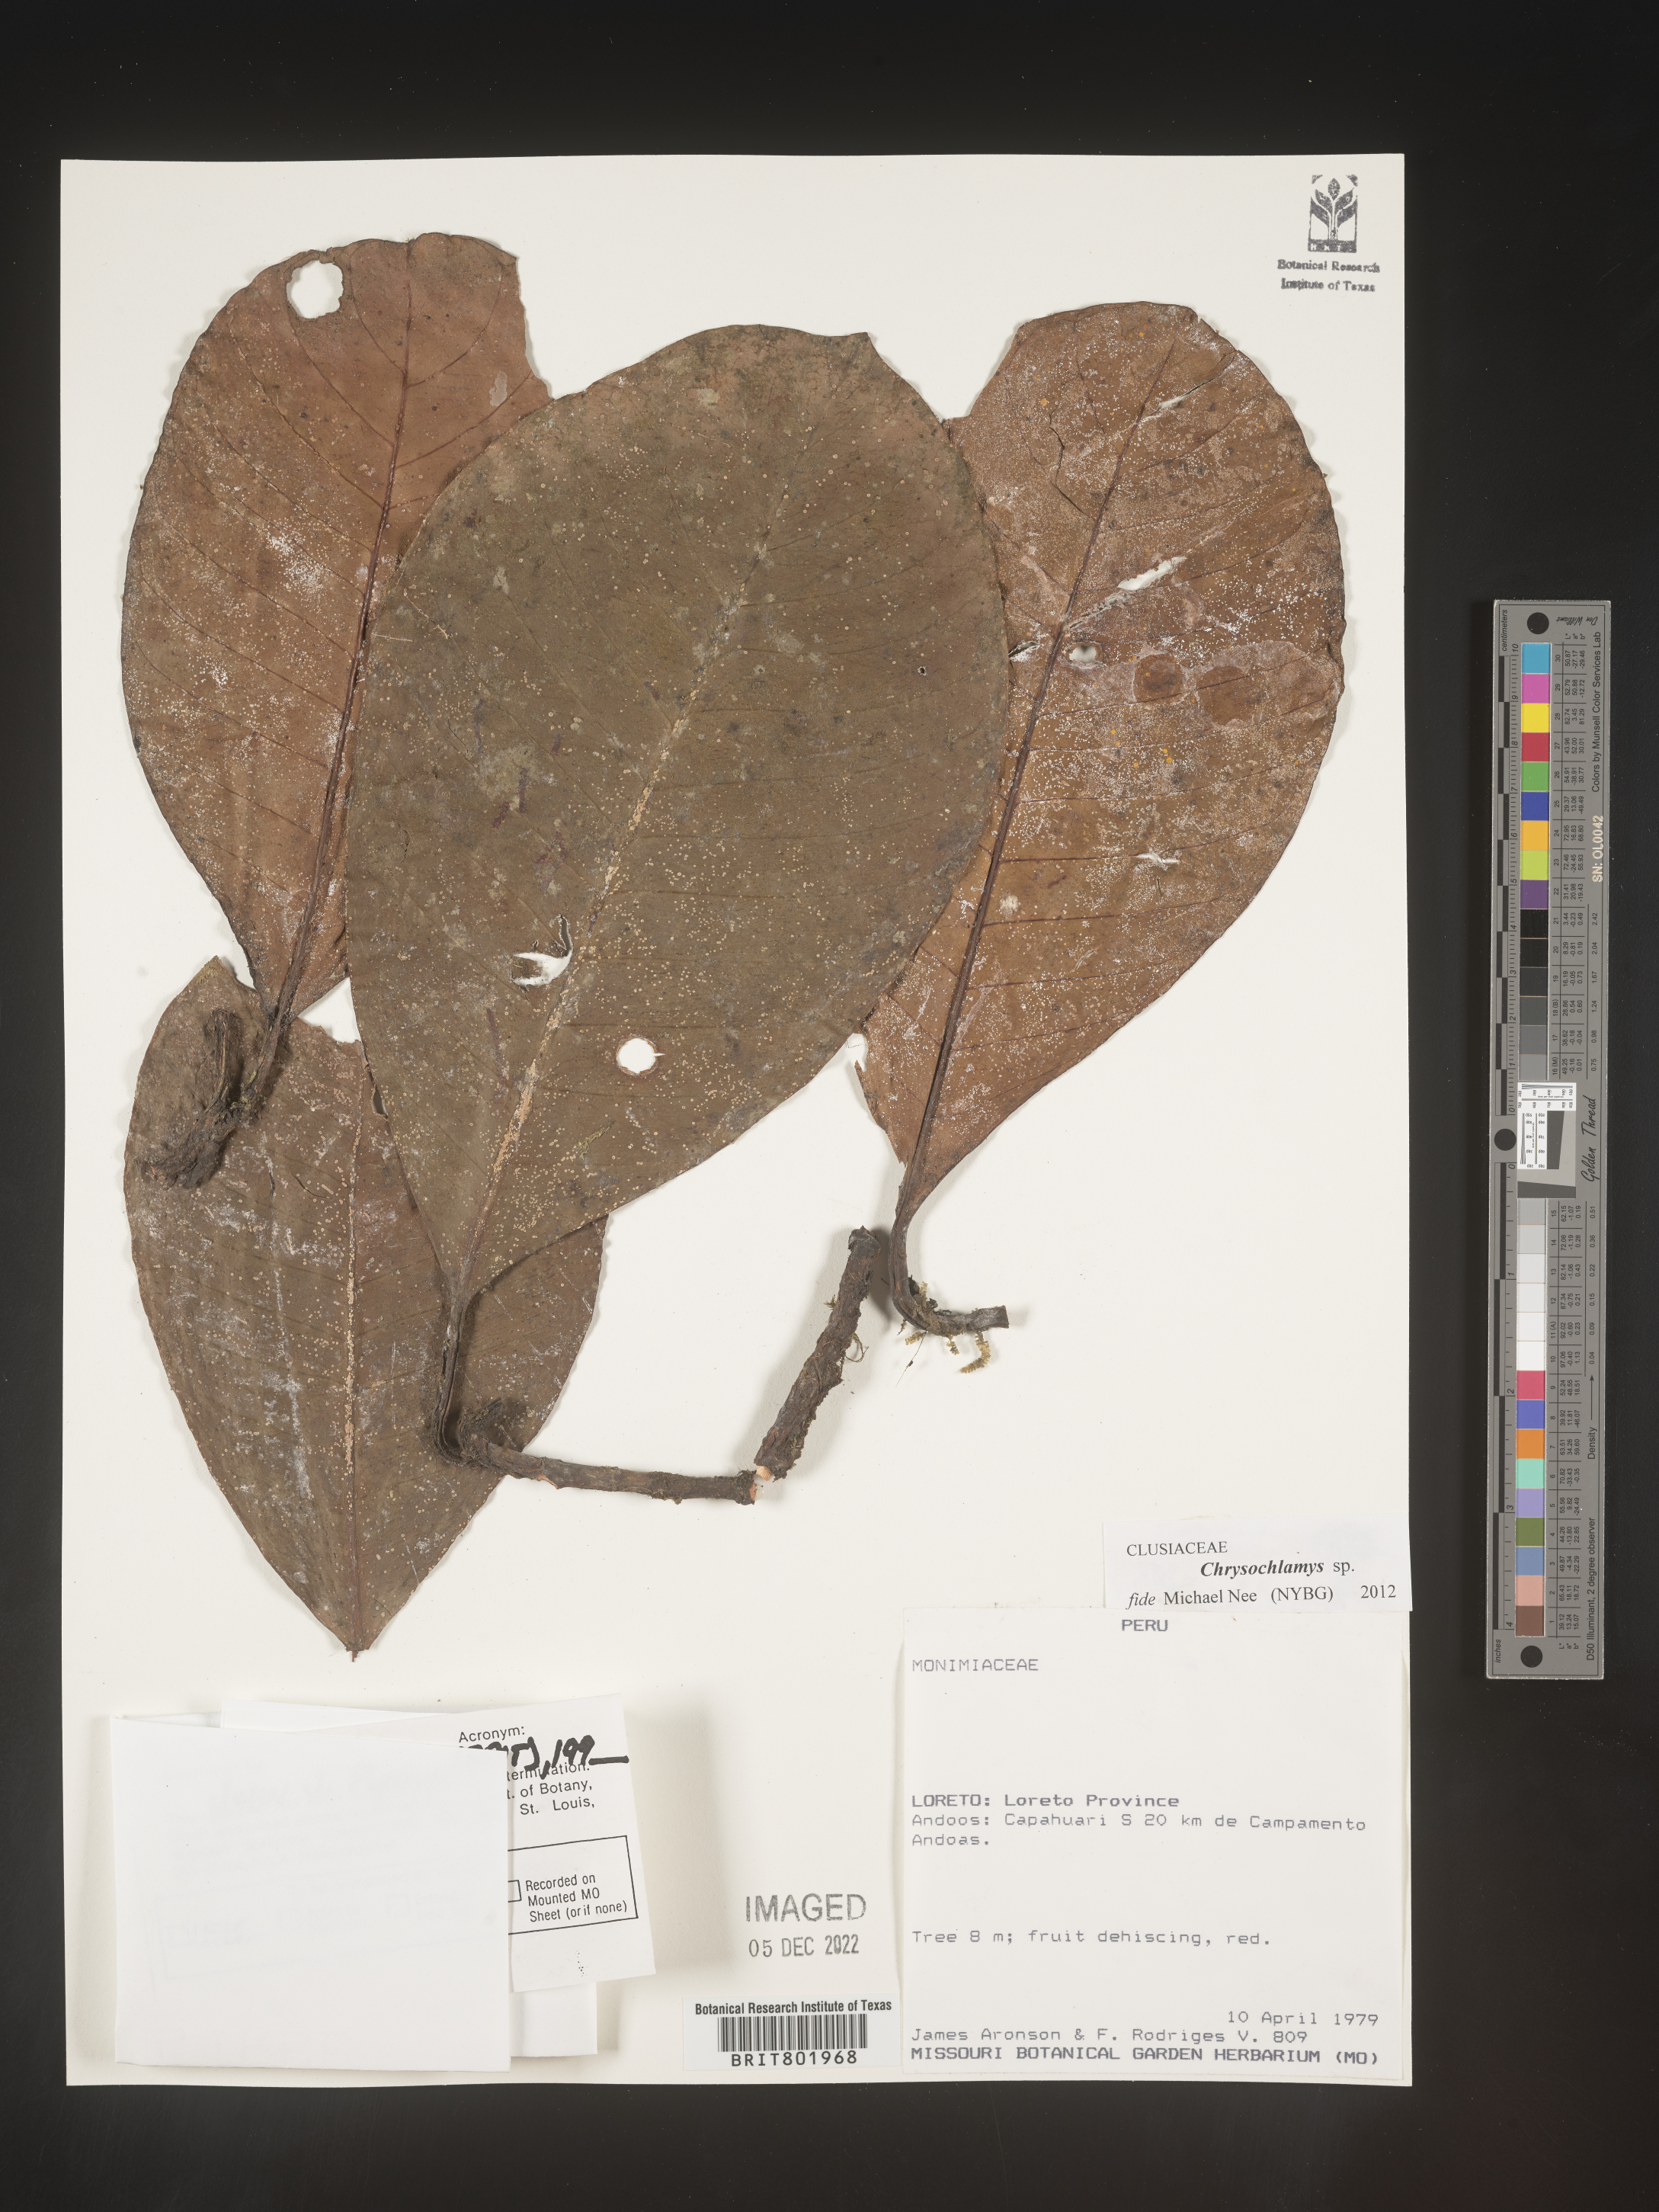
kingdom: Plantae
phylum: Tracheophyta
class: Magnoliopsida
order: Malpighiales
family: Clusiaceae
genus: Chrysochlamys
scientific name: Chrysochlamys
